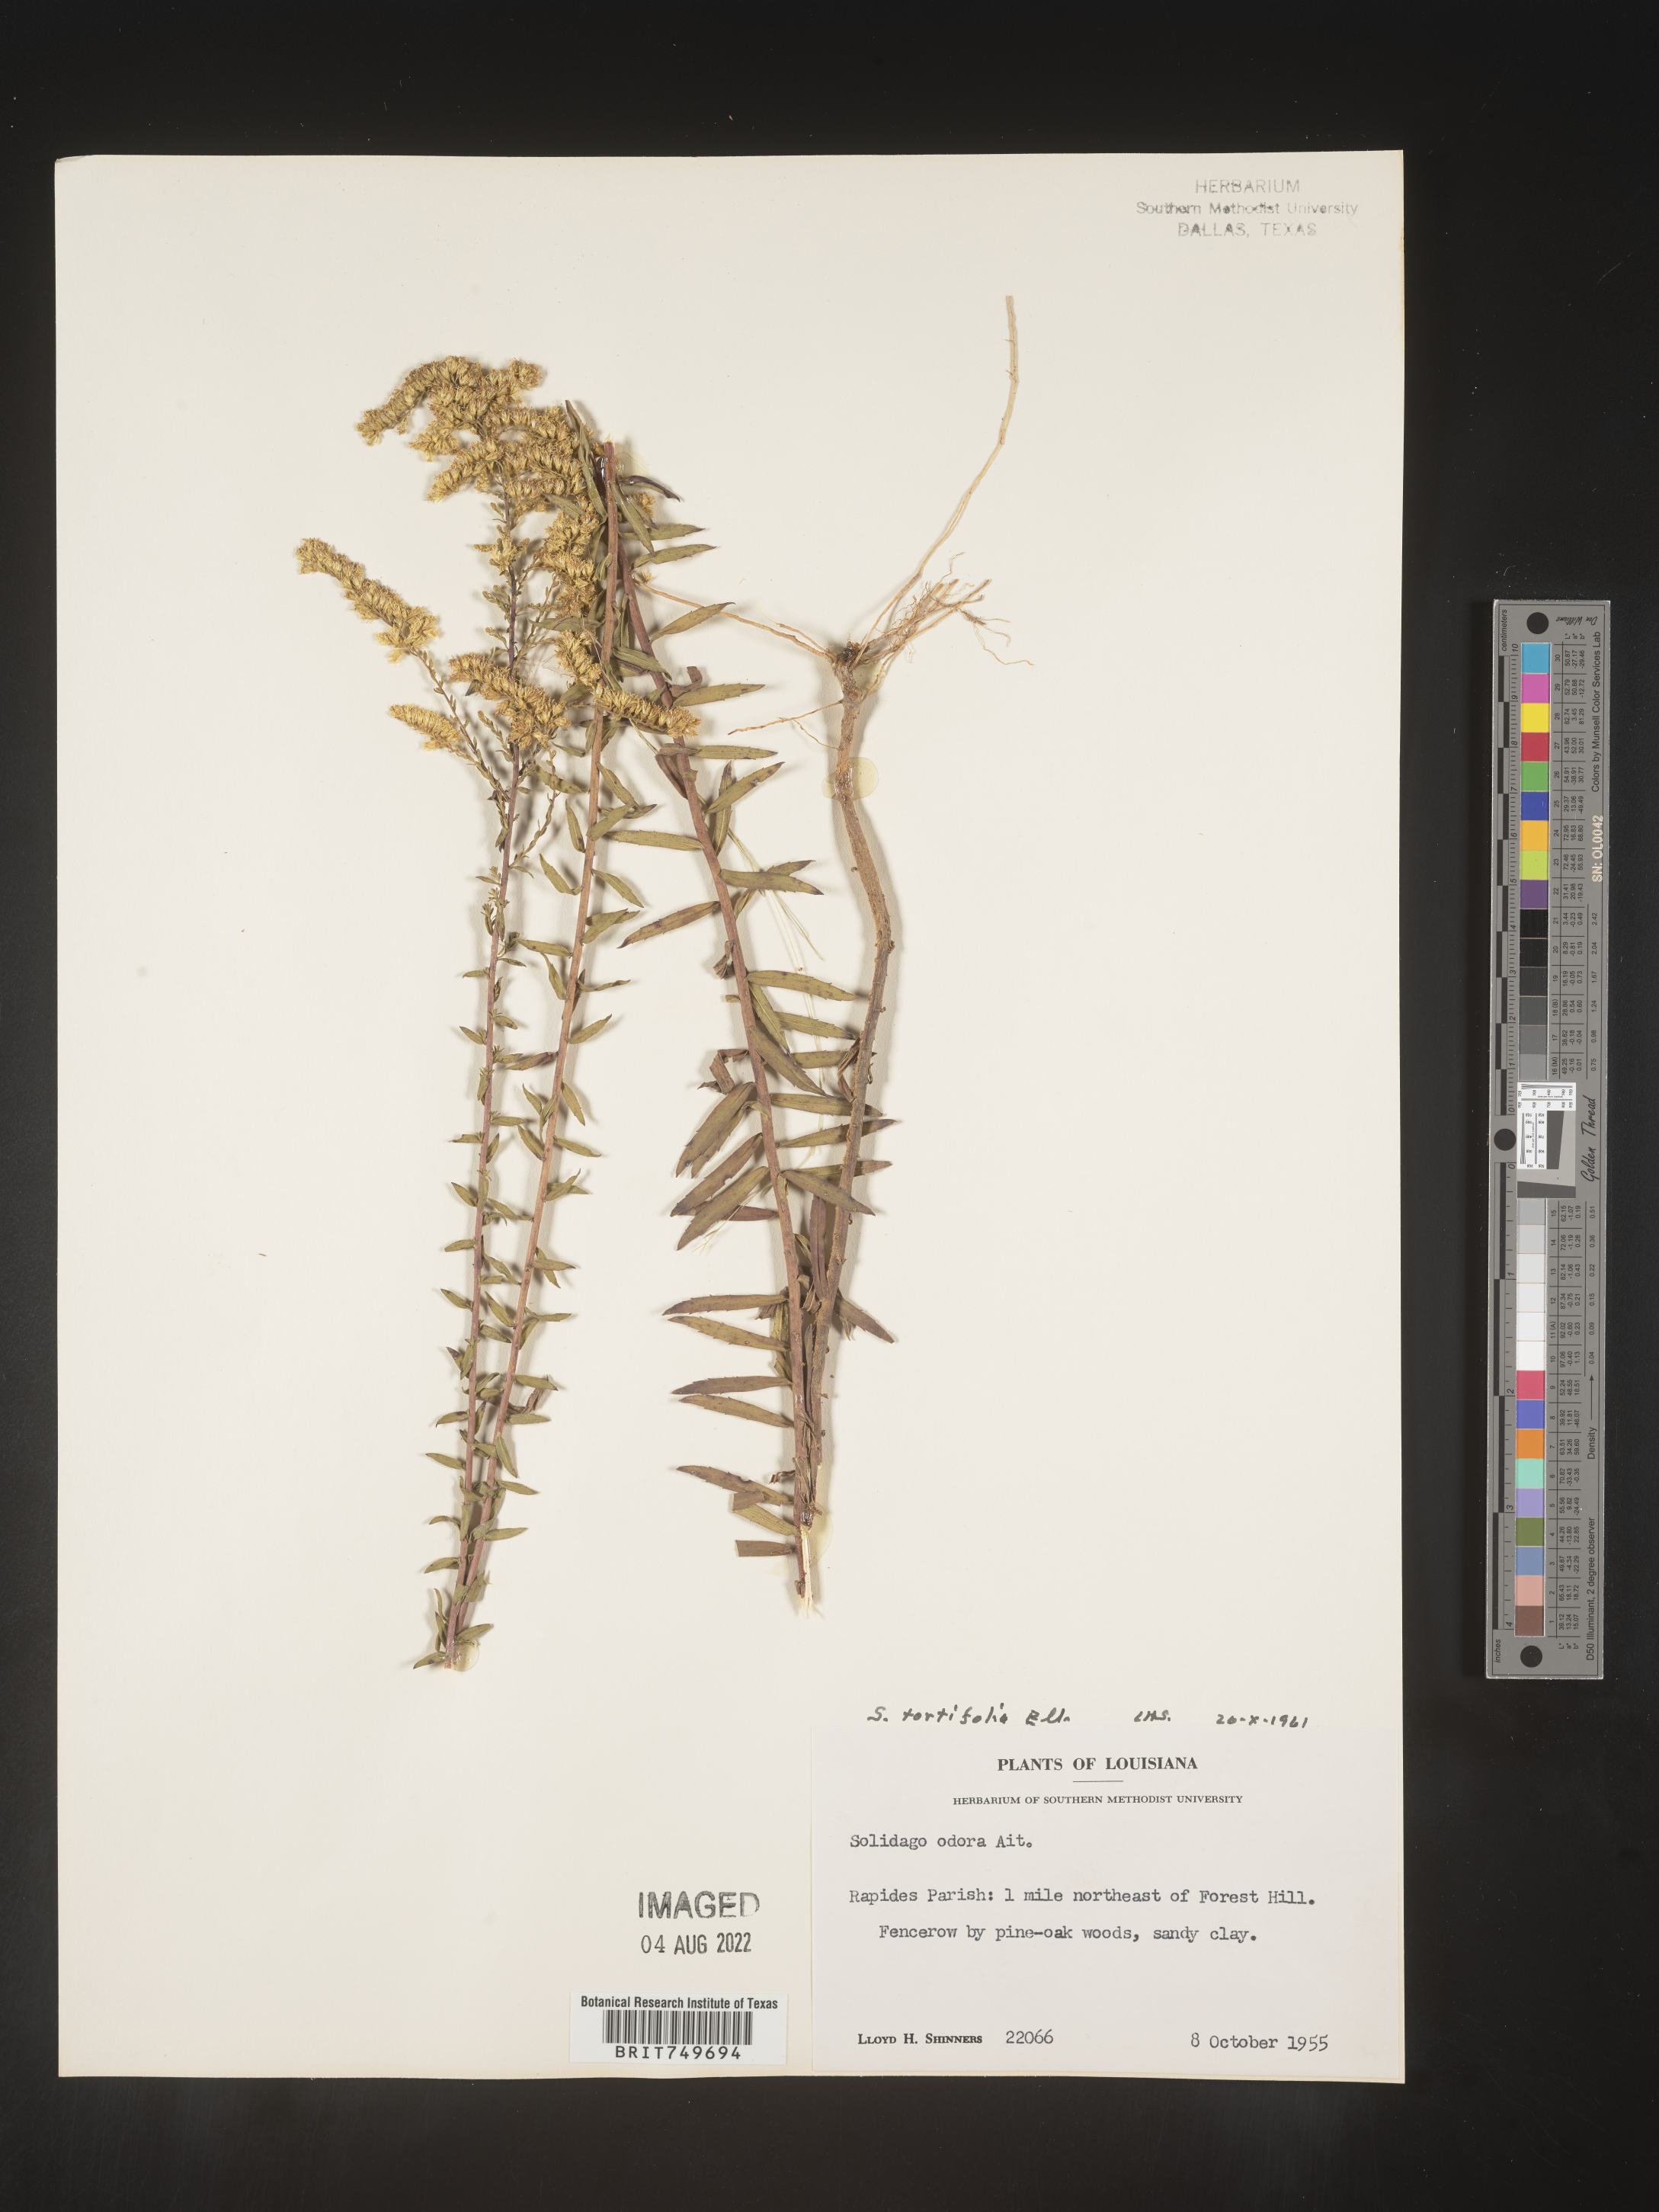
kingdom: Plantae
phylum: Tracheophyta
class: Magnoliopsida
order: Asterales
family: Asteraceae
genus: Solidago
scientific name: Solidago tortifolia
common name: Twisted-leaf goldenrod
